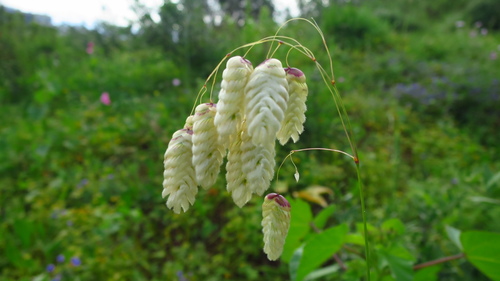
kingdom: Plantae
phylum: Tracheophyta
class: Liliopsida
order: Poales
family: Poaceae
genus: Briza
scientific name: Briza maxima
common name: Big quakinggrass
